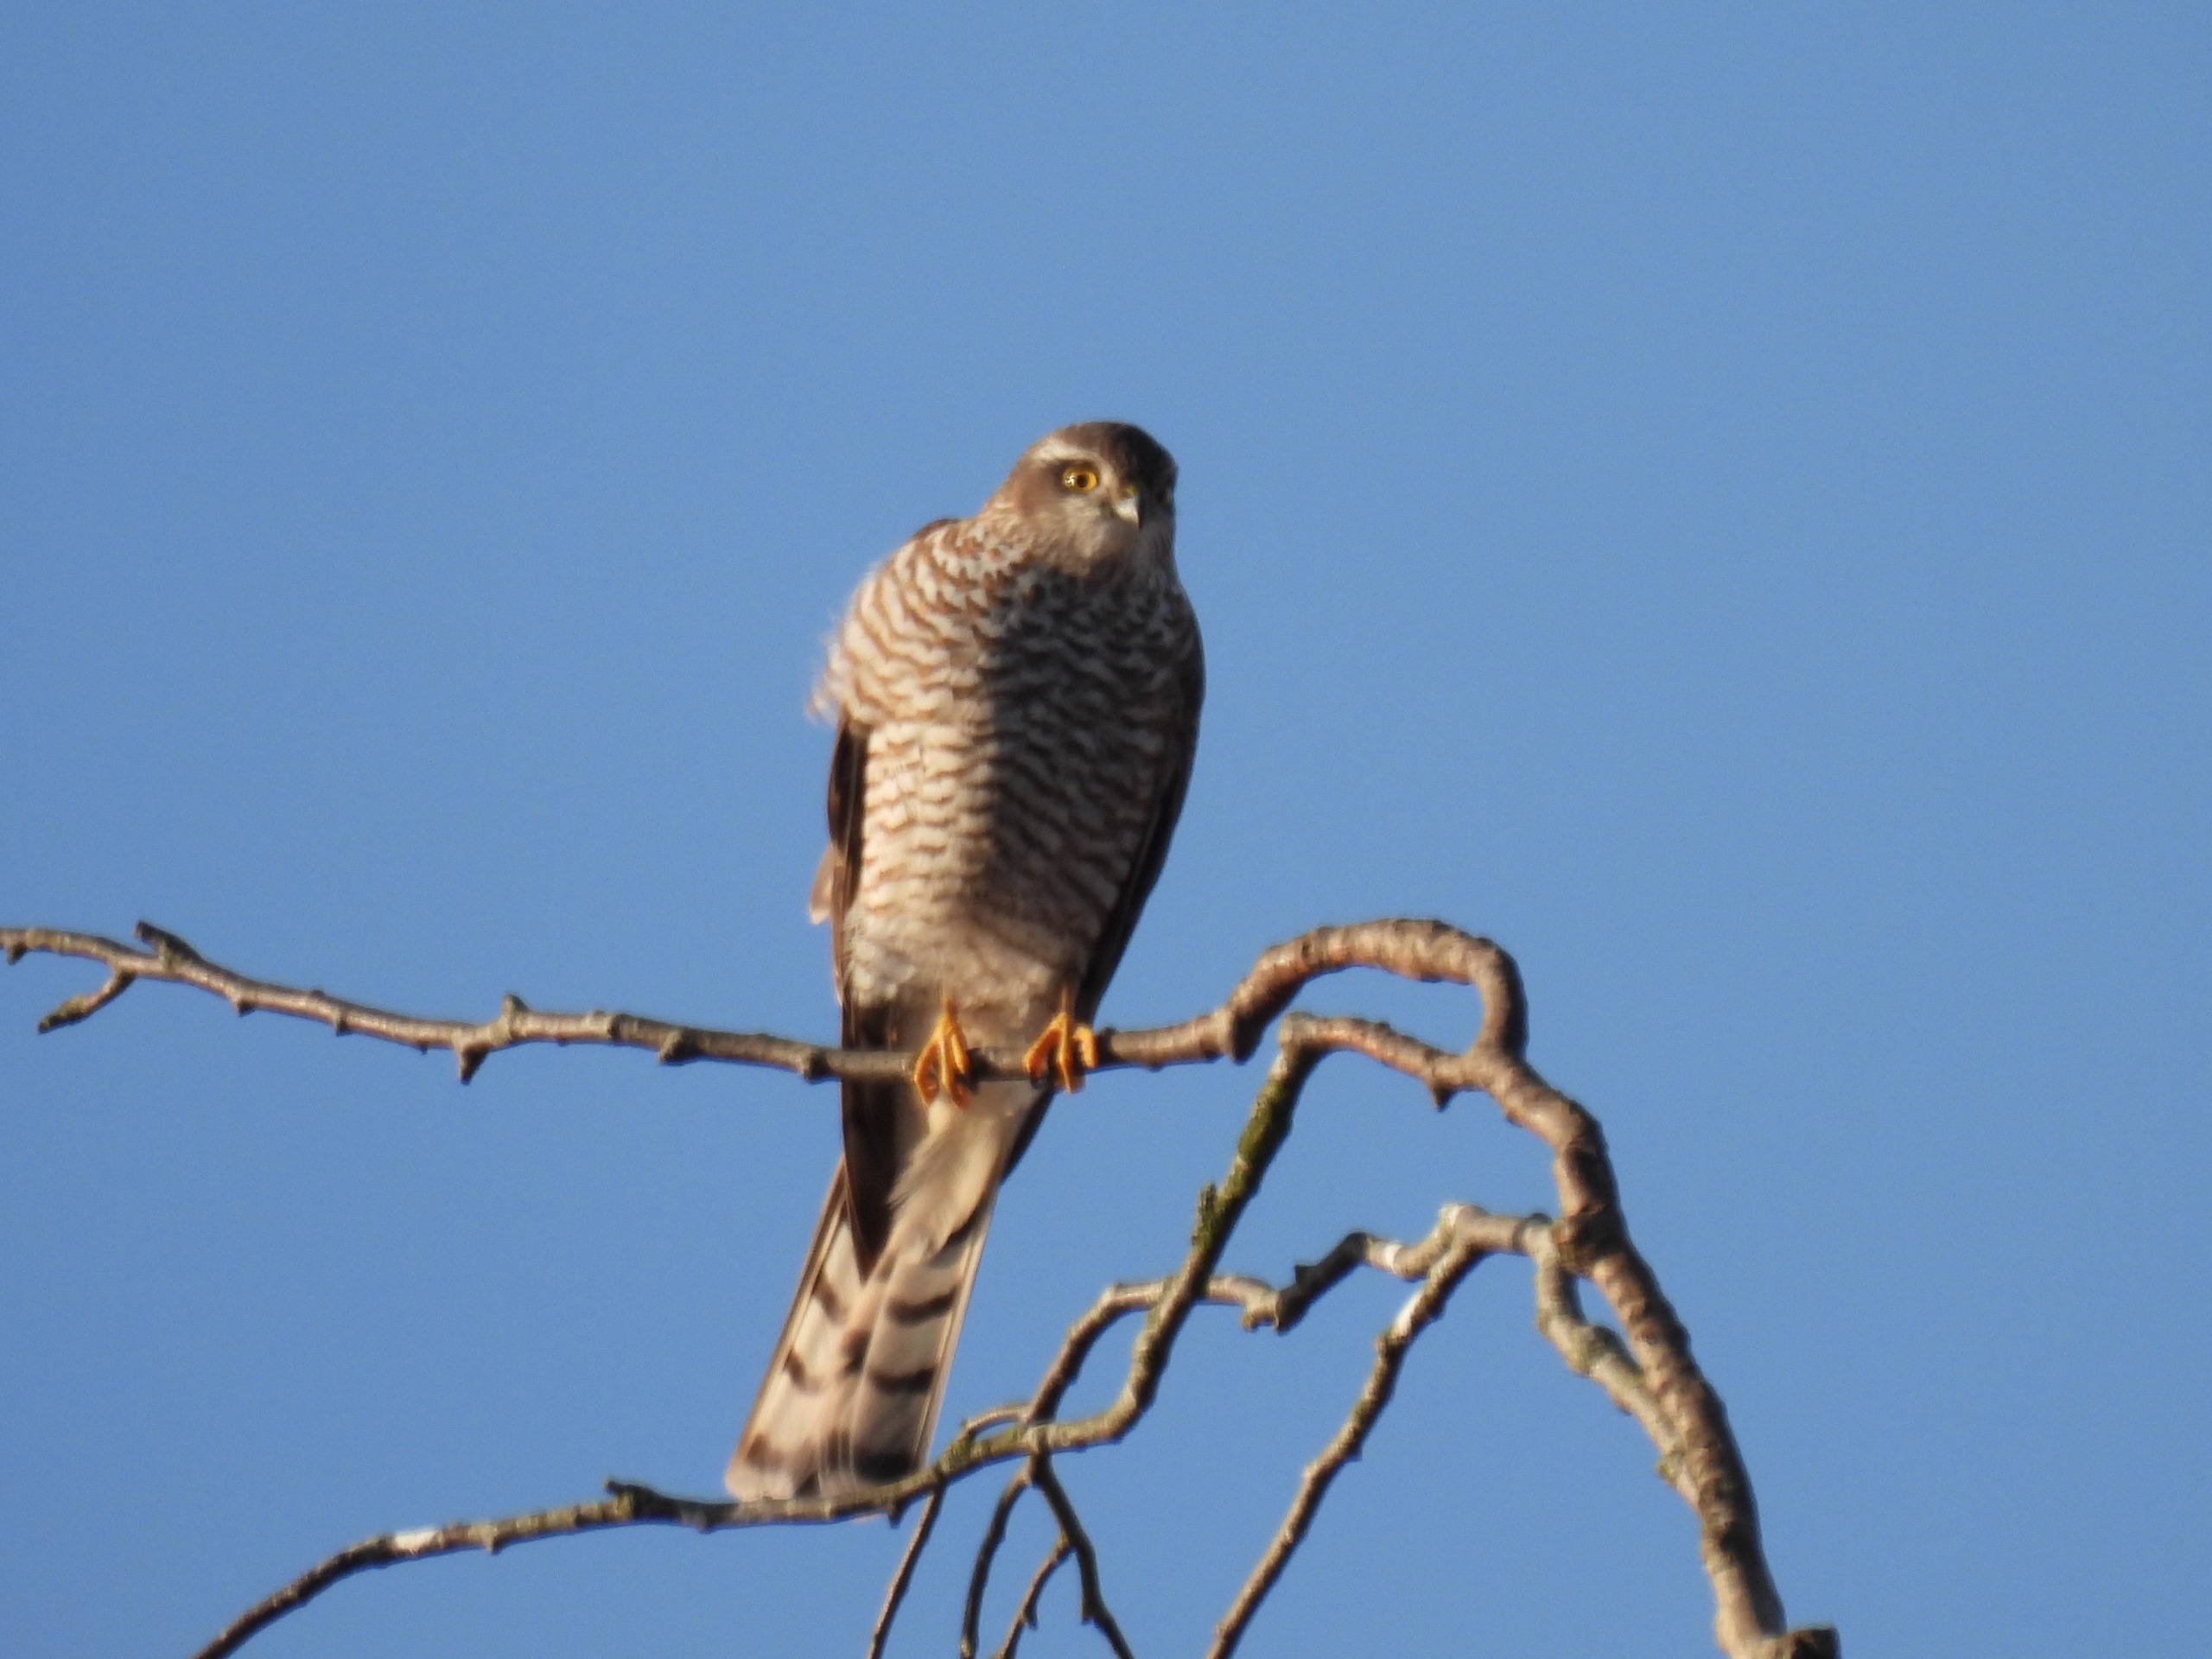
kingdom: Animalia
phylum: Chordata
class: Aves
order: Accipitriformes
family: Accipitridae
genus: Accipiter
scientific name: Accipiter nisus
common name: Spurvehøg
